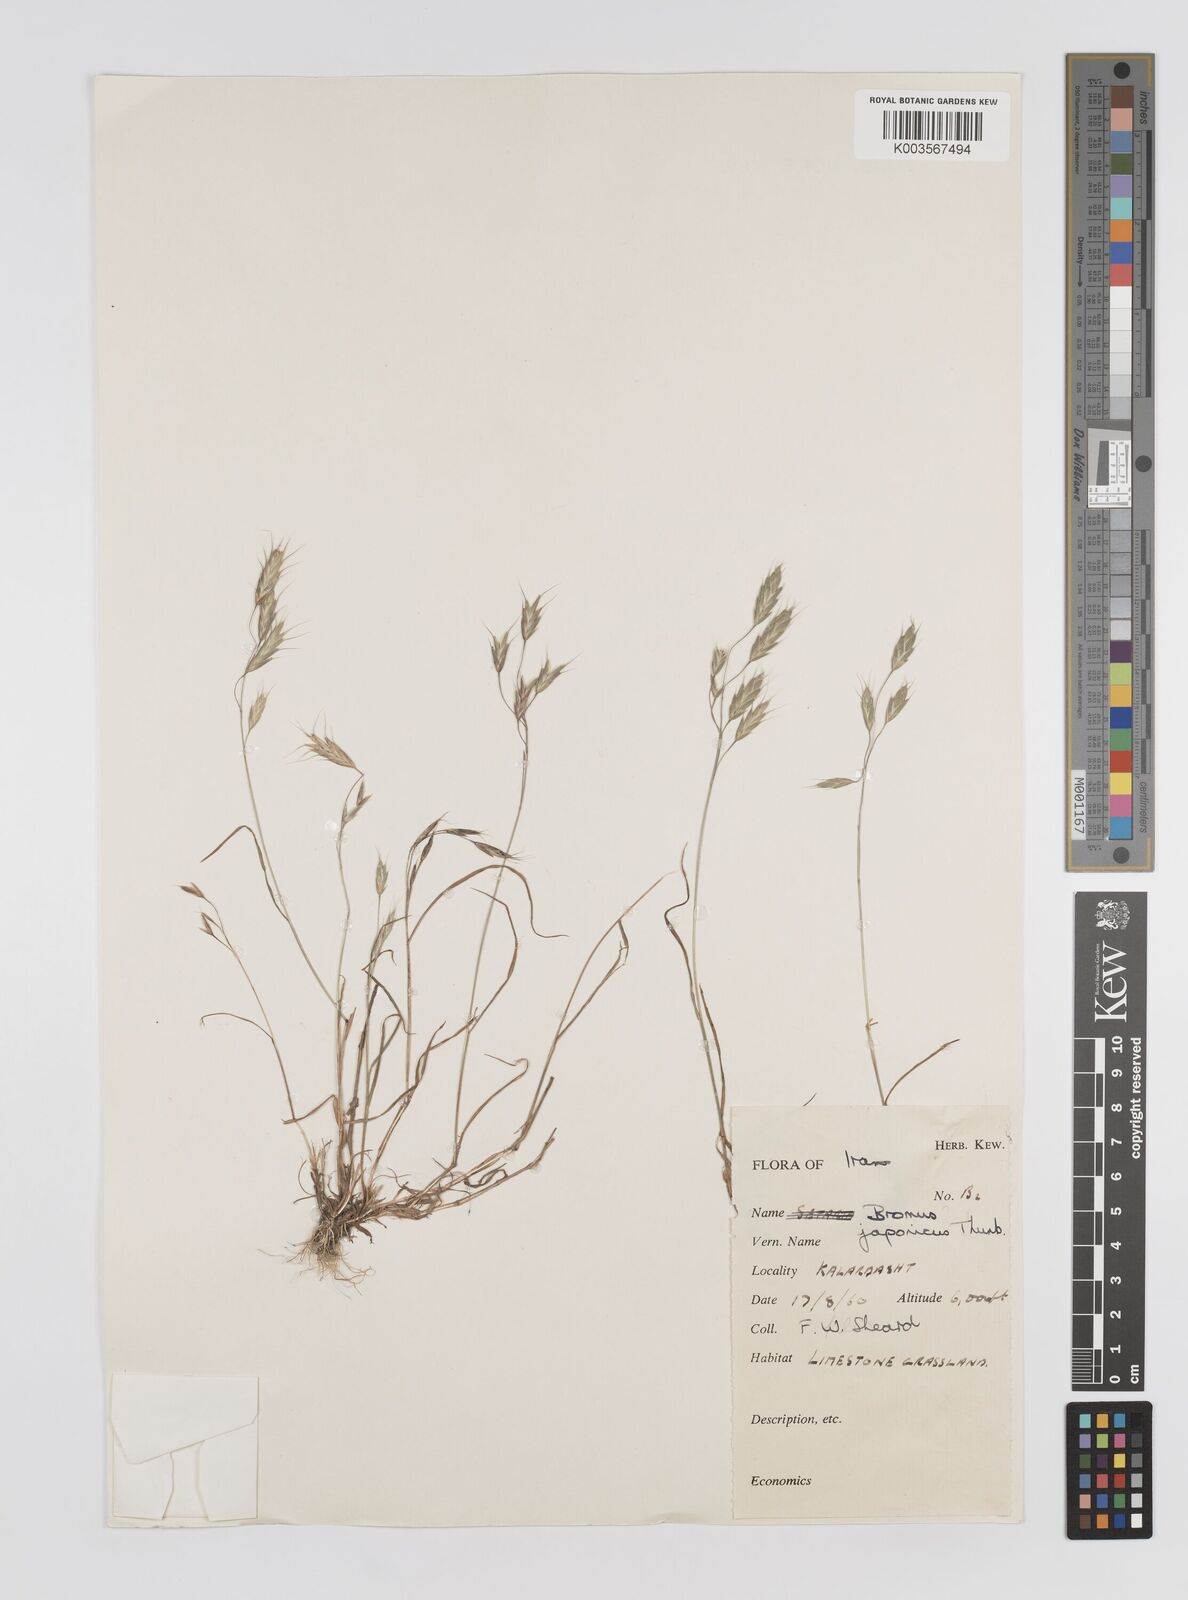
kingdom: Plantae
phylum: Tracheophyta
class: Liliopsida
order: Poales
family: Poaceae
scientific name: Poaceae
